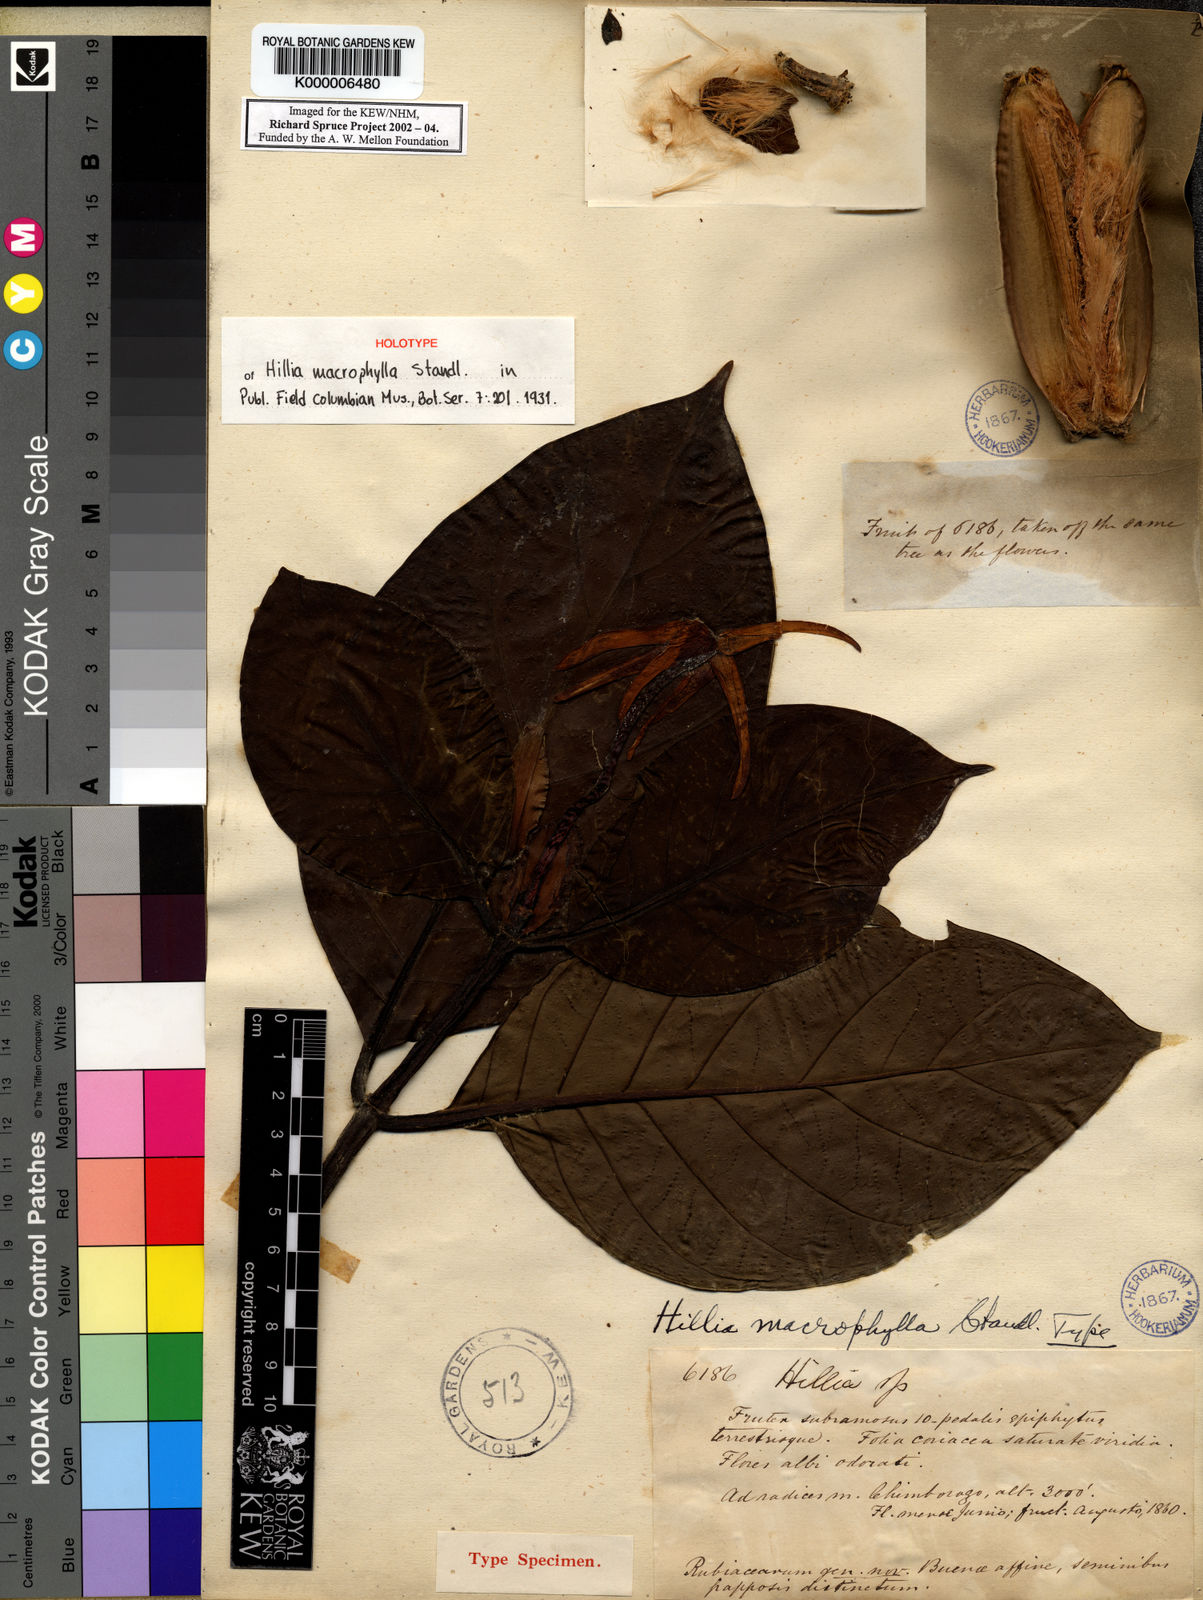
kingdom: Plantae
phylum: Tracheophyta
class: Magnoliopsida
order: Gentianales
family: Rubiaceae
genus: Hillia
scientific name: Hillia macrophylla
